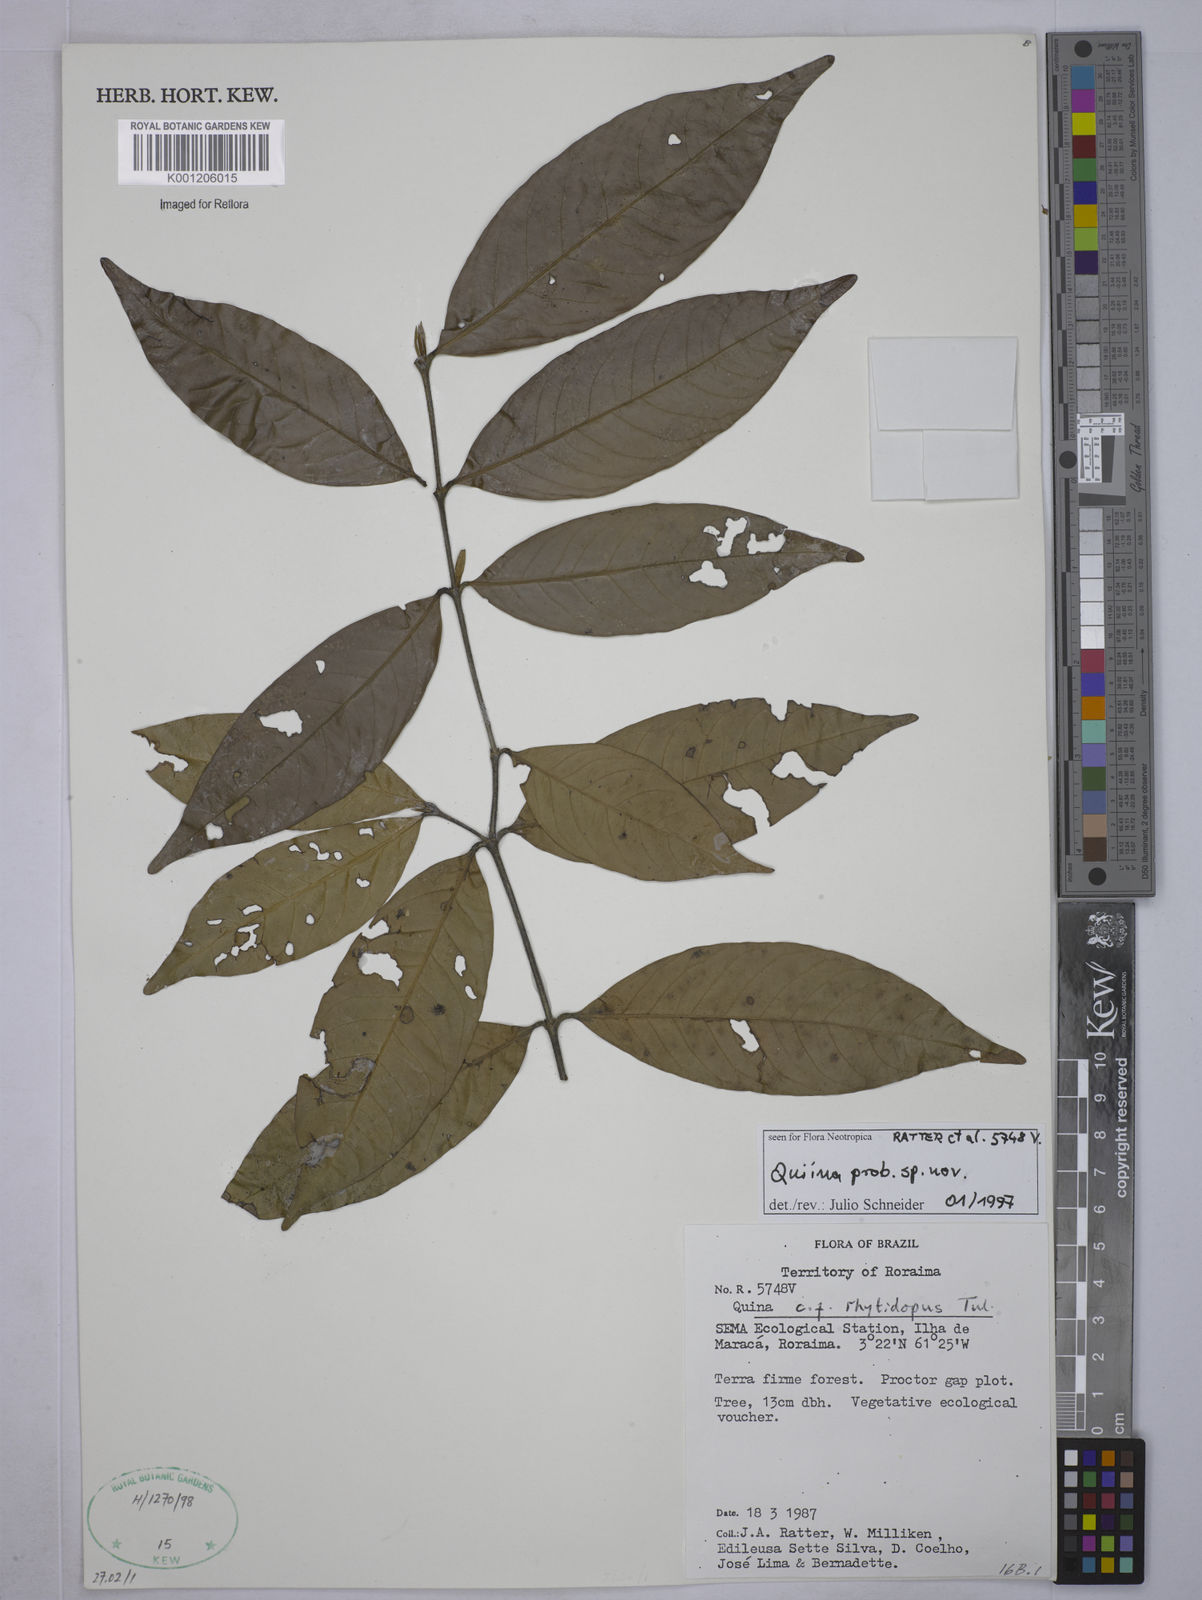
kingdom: Plantae
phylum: Tracheophyta
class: Magnoliopsida
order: Malpighiales
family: Quiinaceae
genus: Quiina
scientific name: Quiina
